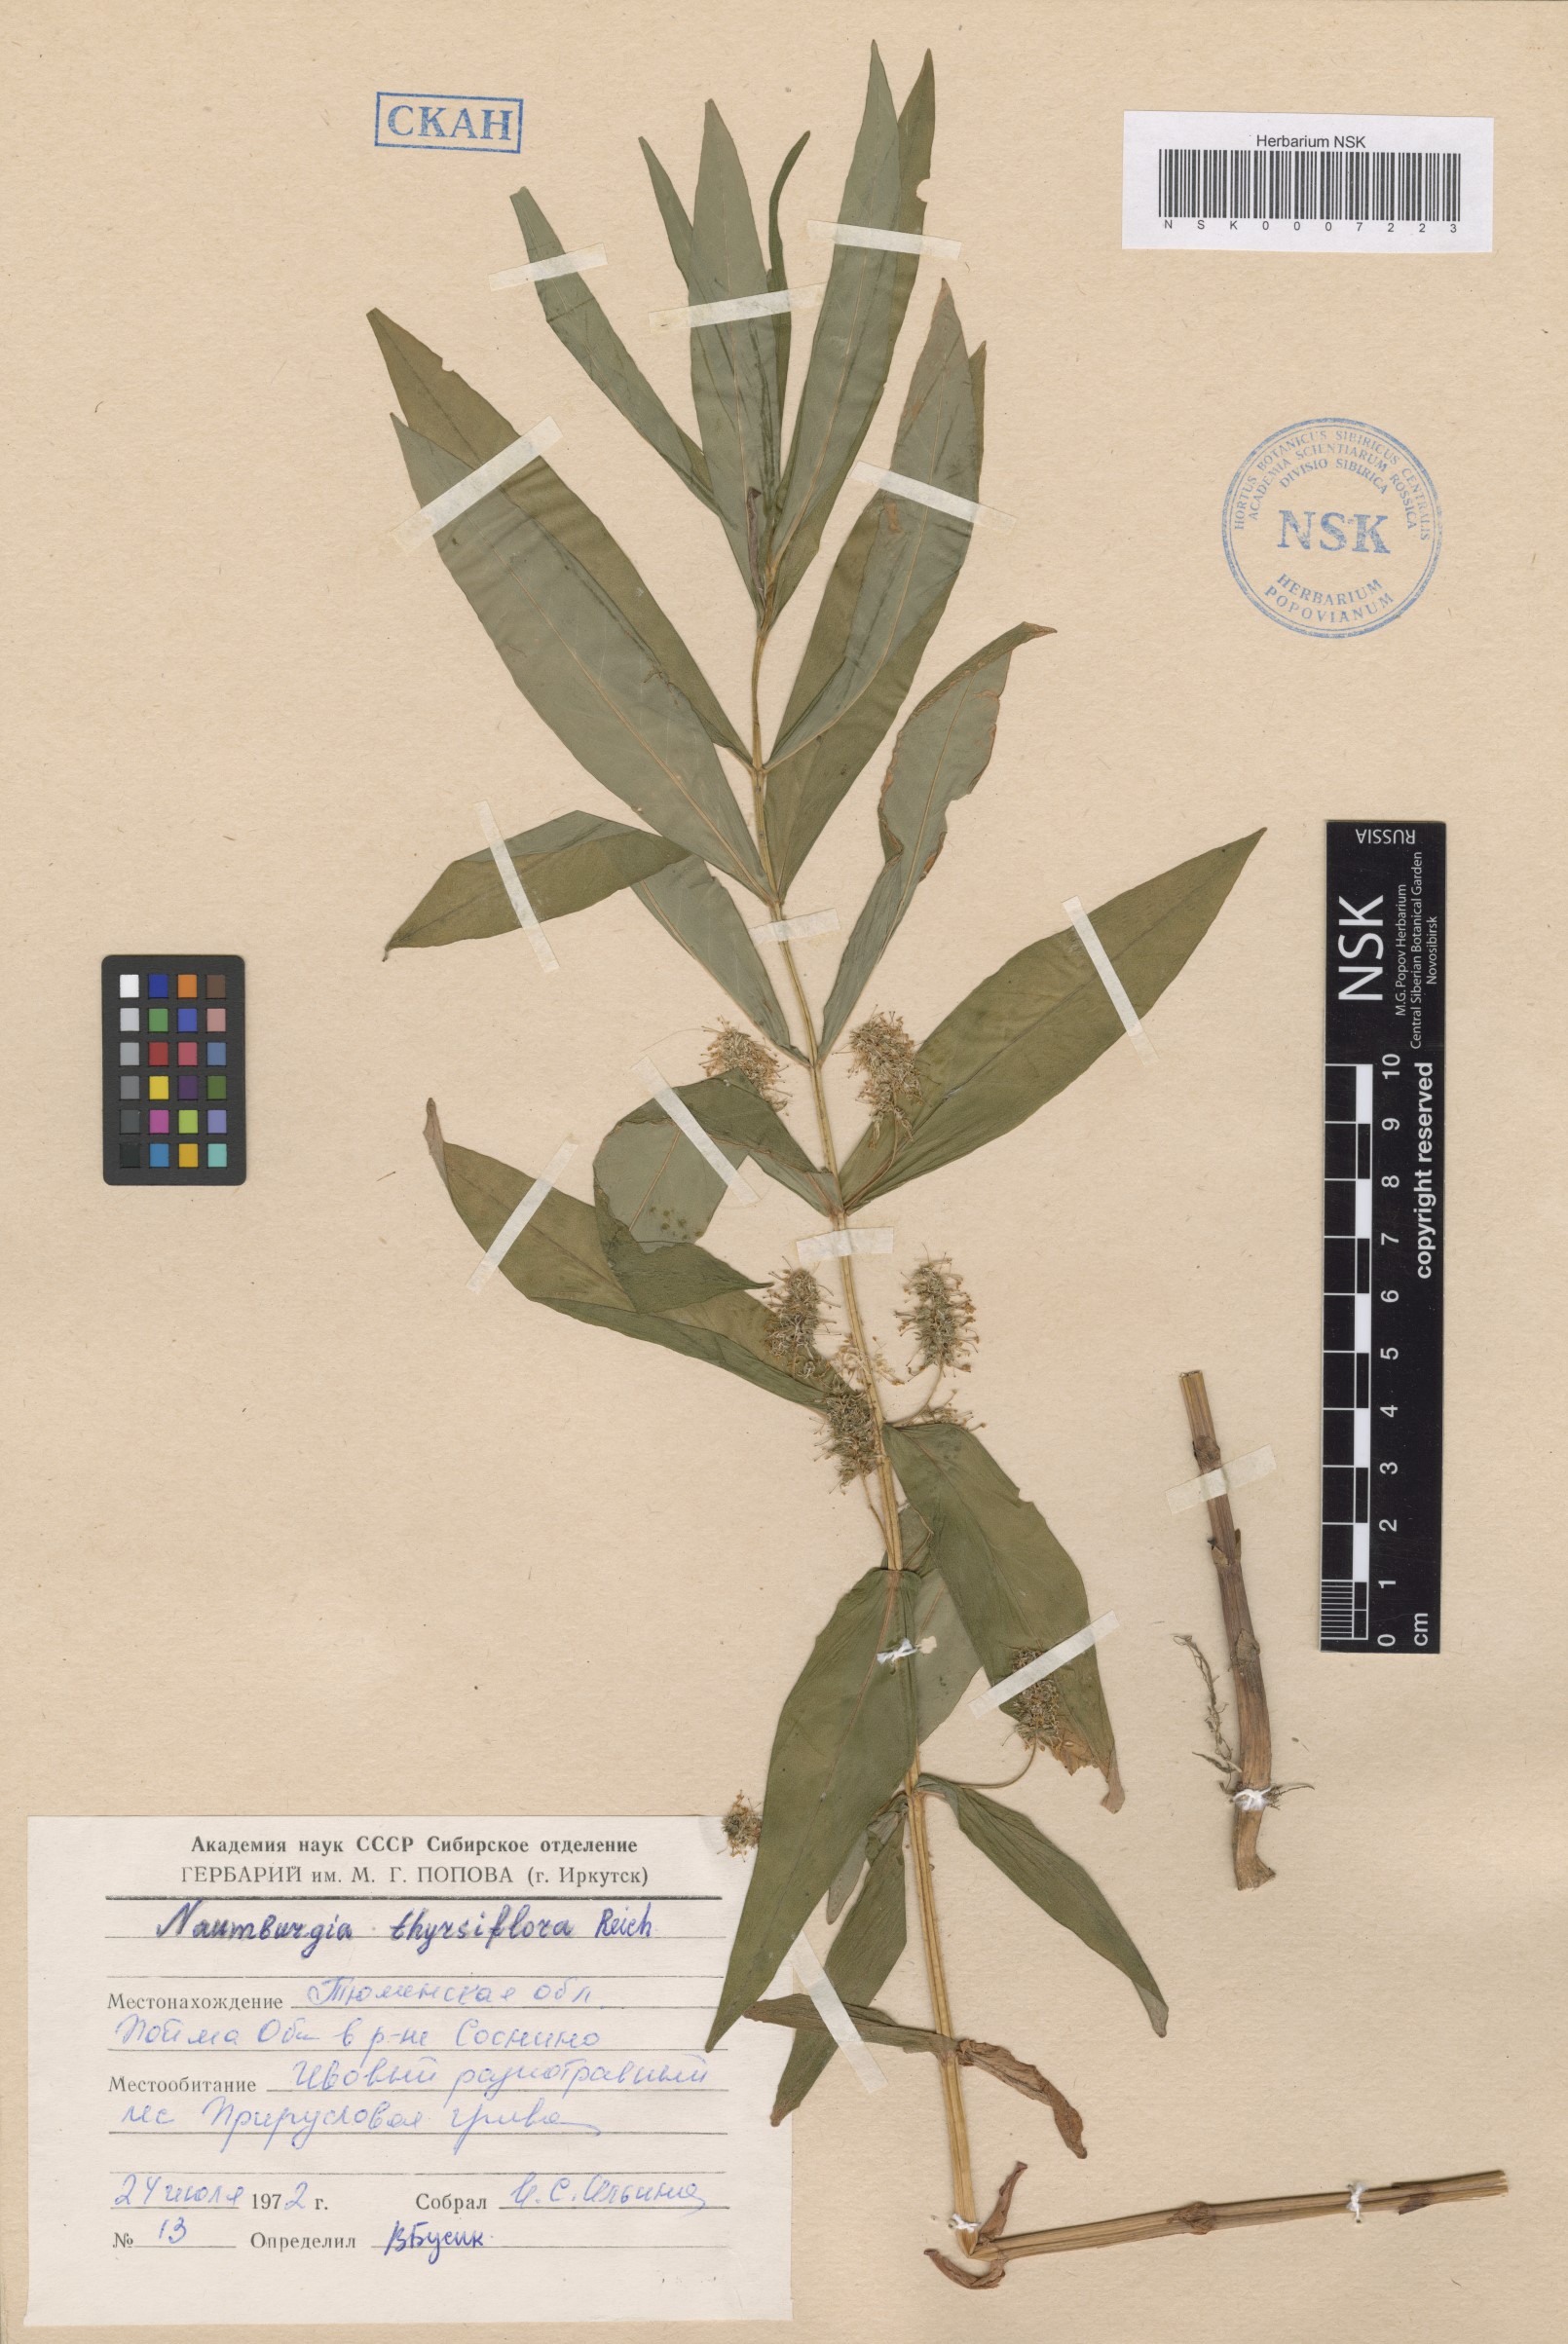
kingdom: Plantae
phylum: Tracheophyta
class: Magnoliopsida
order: Ericales
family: Primulaceae
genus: Lysimachia
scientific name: Lysimachia thyrsiflora
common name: Tufted loosestrife
